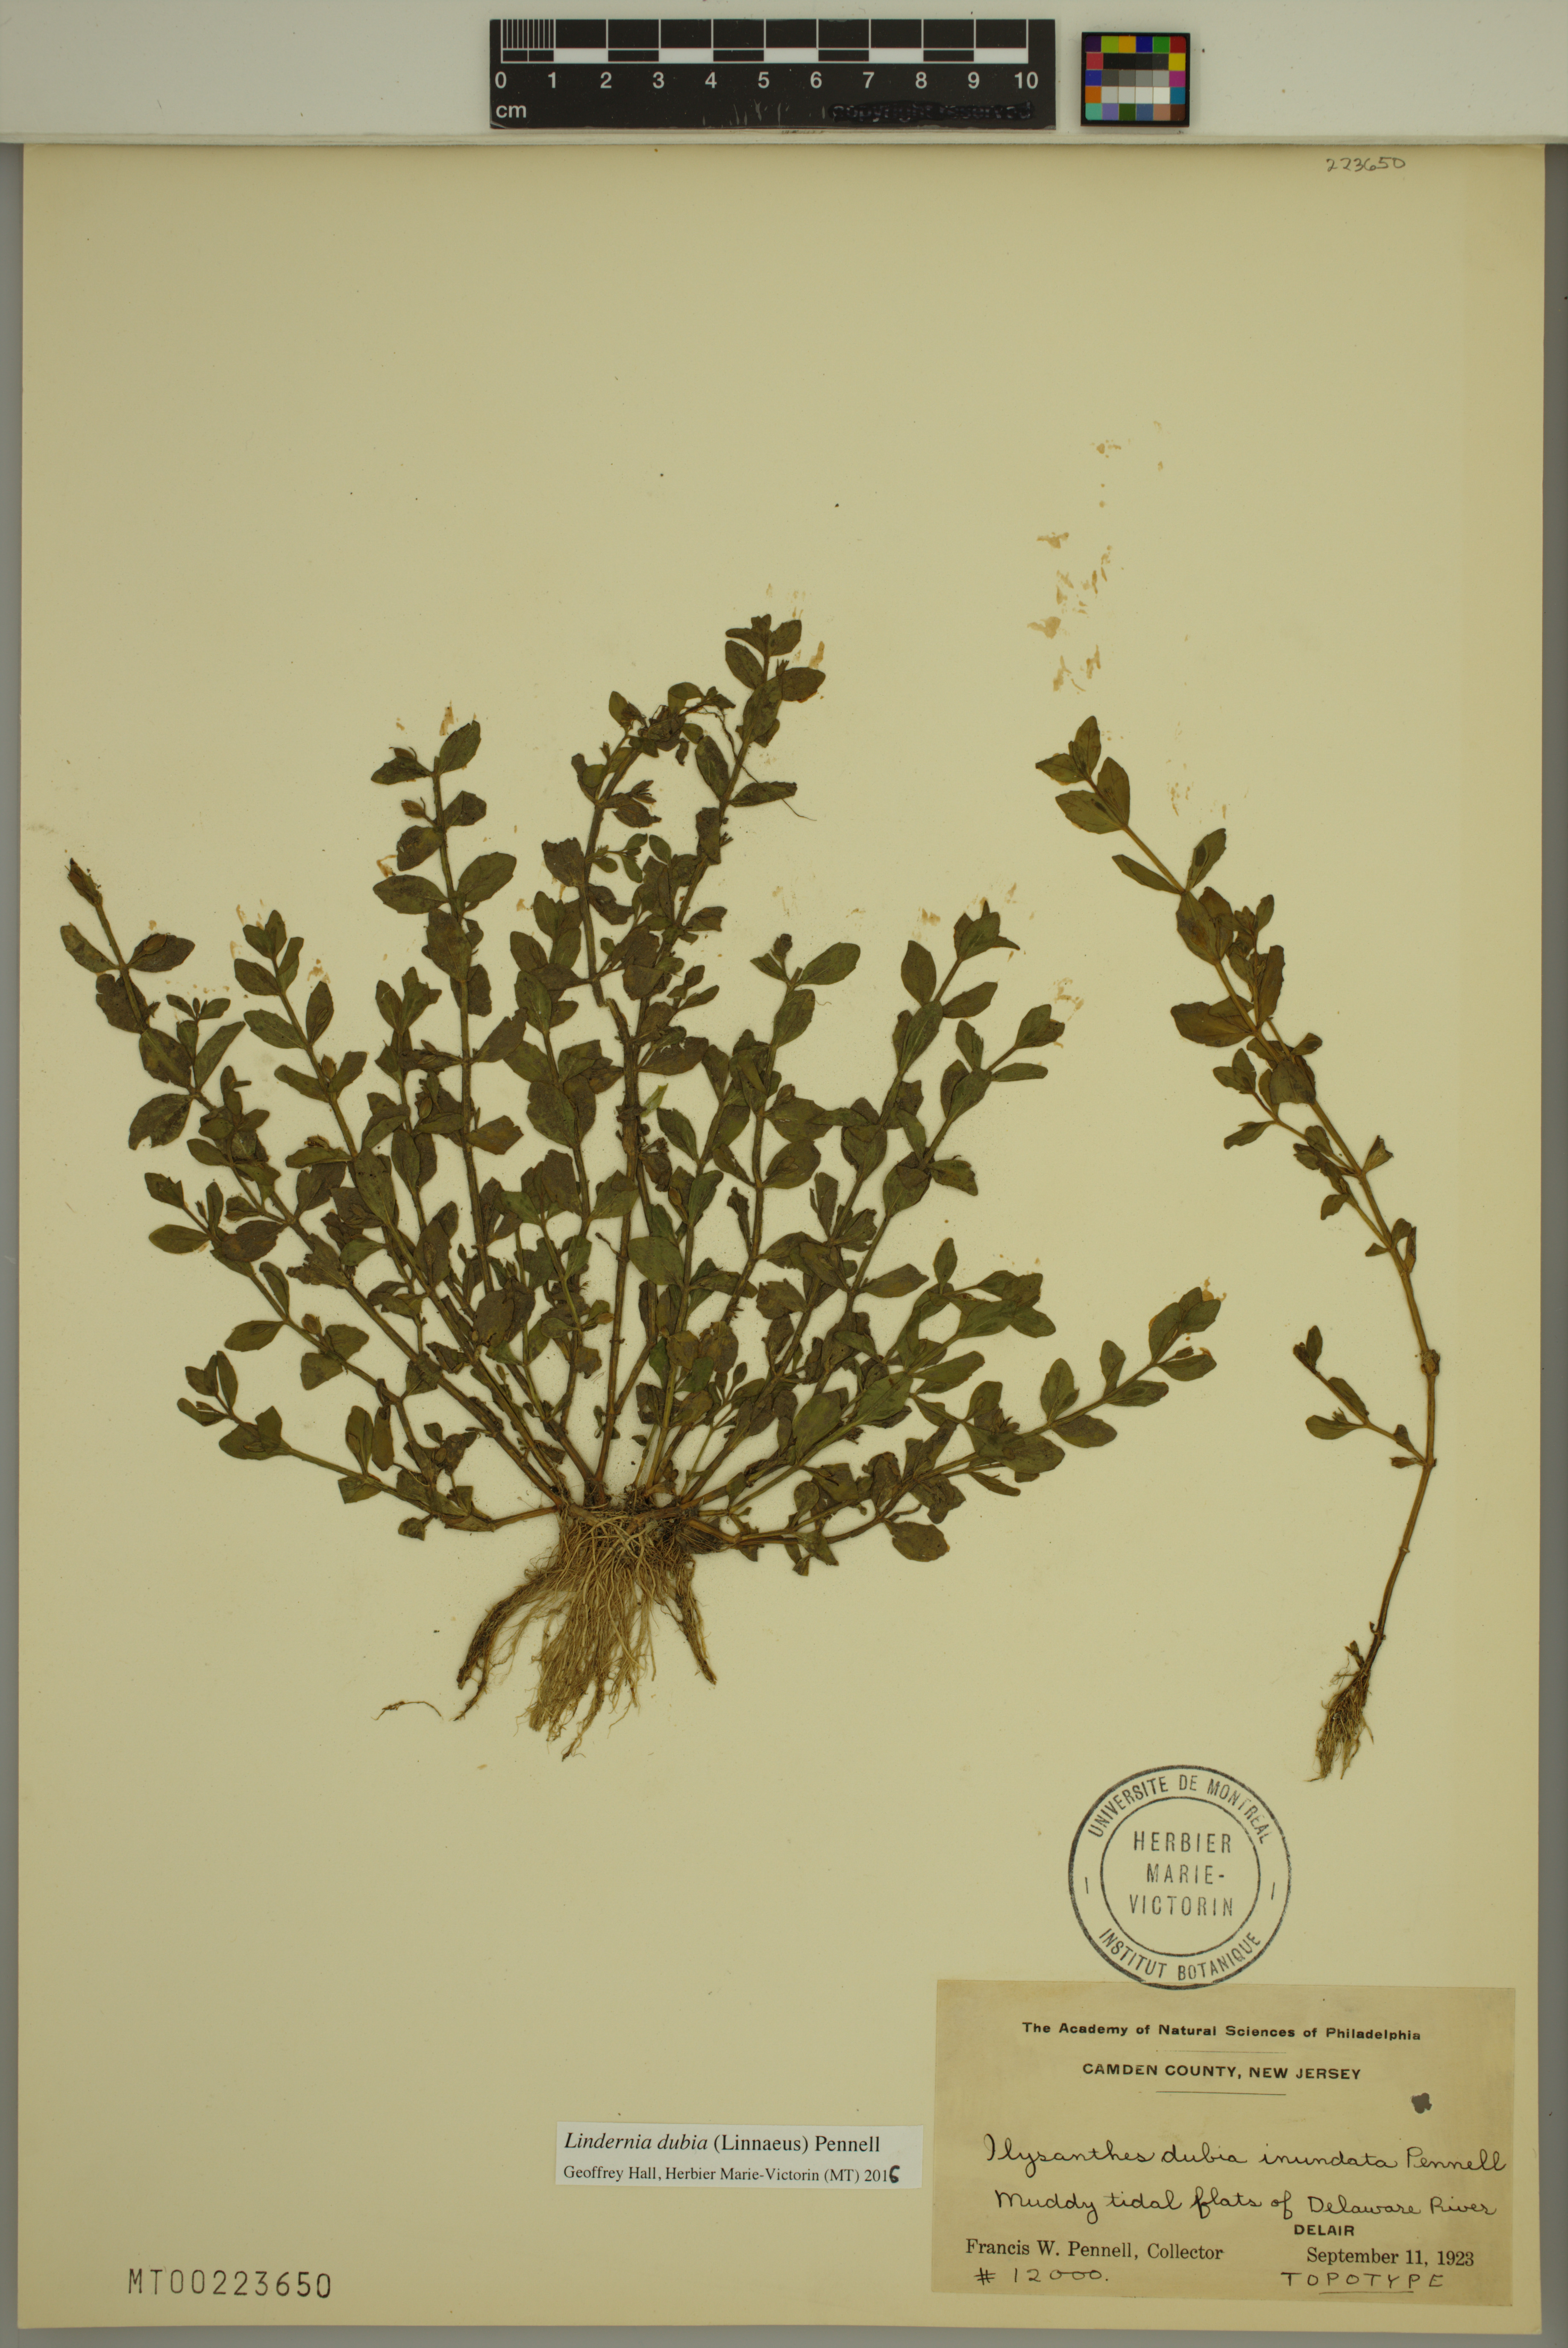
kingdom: Plantae
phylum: Tracheophyta
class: Magnoliopsida
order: Lamiales
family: Linderniaceae
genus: Lindernia
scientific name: Lindernia dubia
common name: Annual false pimpernel
